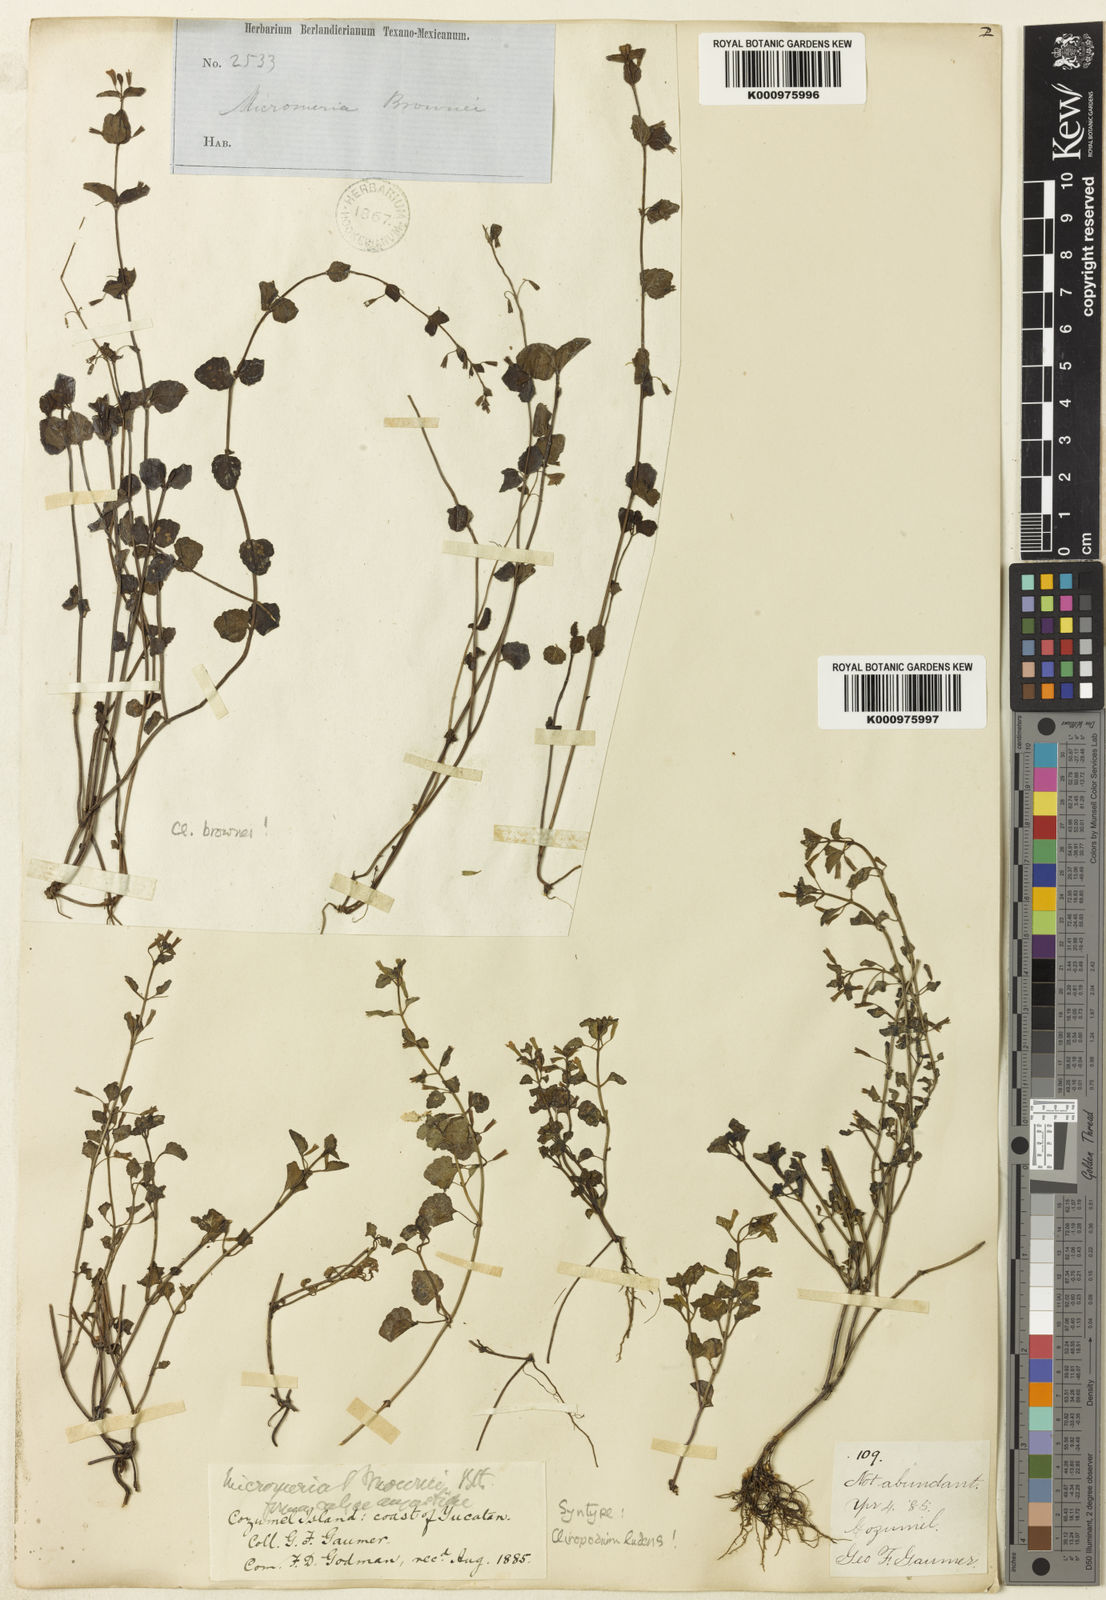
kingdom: Plantae
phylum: Tracheophyta
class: Magnoliopsida
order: Lamiales
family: Lamiaceae
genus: Clinopodium
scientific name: Clinopodium ludens
